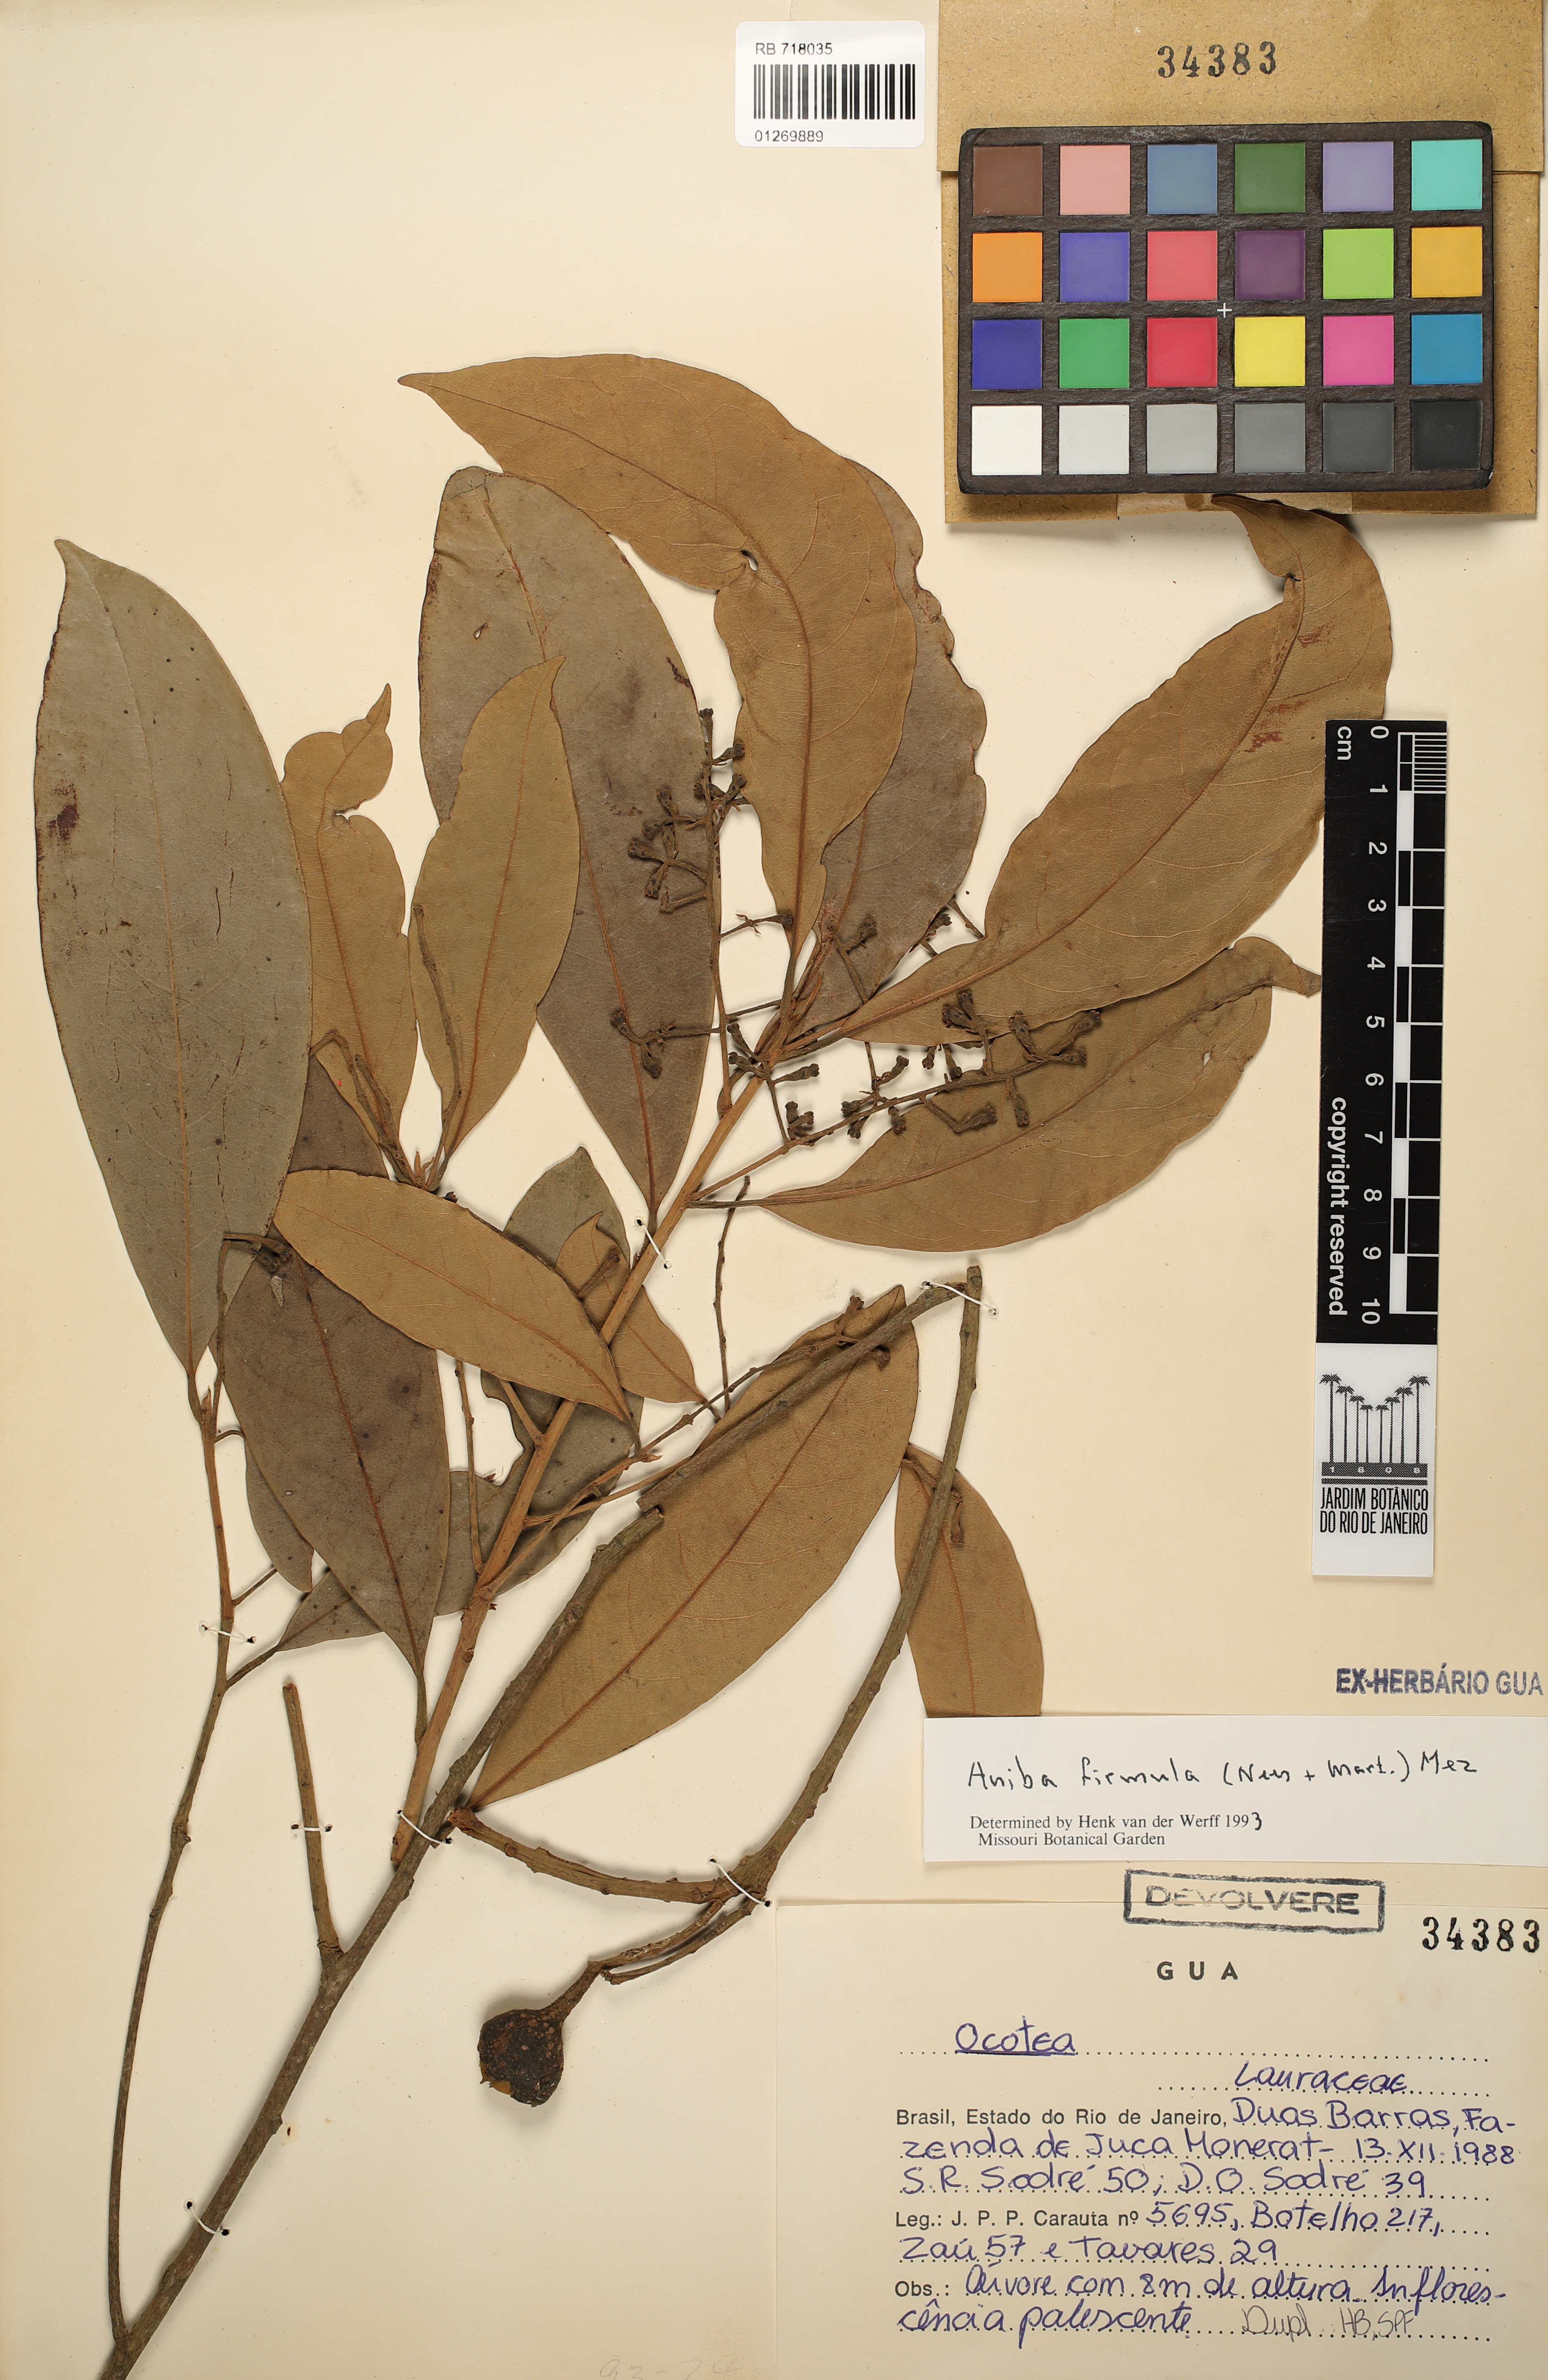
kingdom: Plantae
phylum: Tracheophyta
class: Magnoliopsida
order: Laurales
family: Lauraceae
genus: Aniba
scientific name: Aniba firmula
